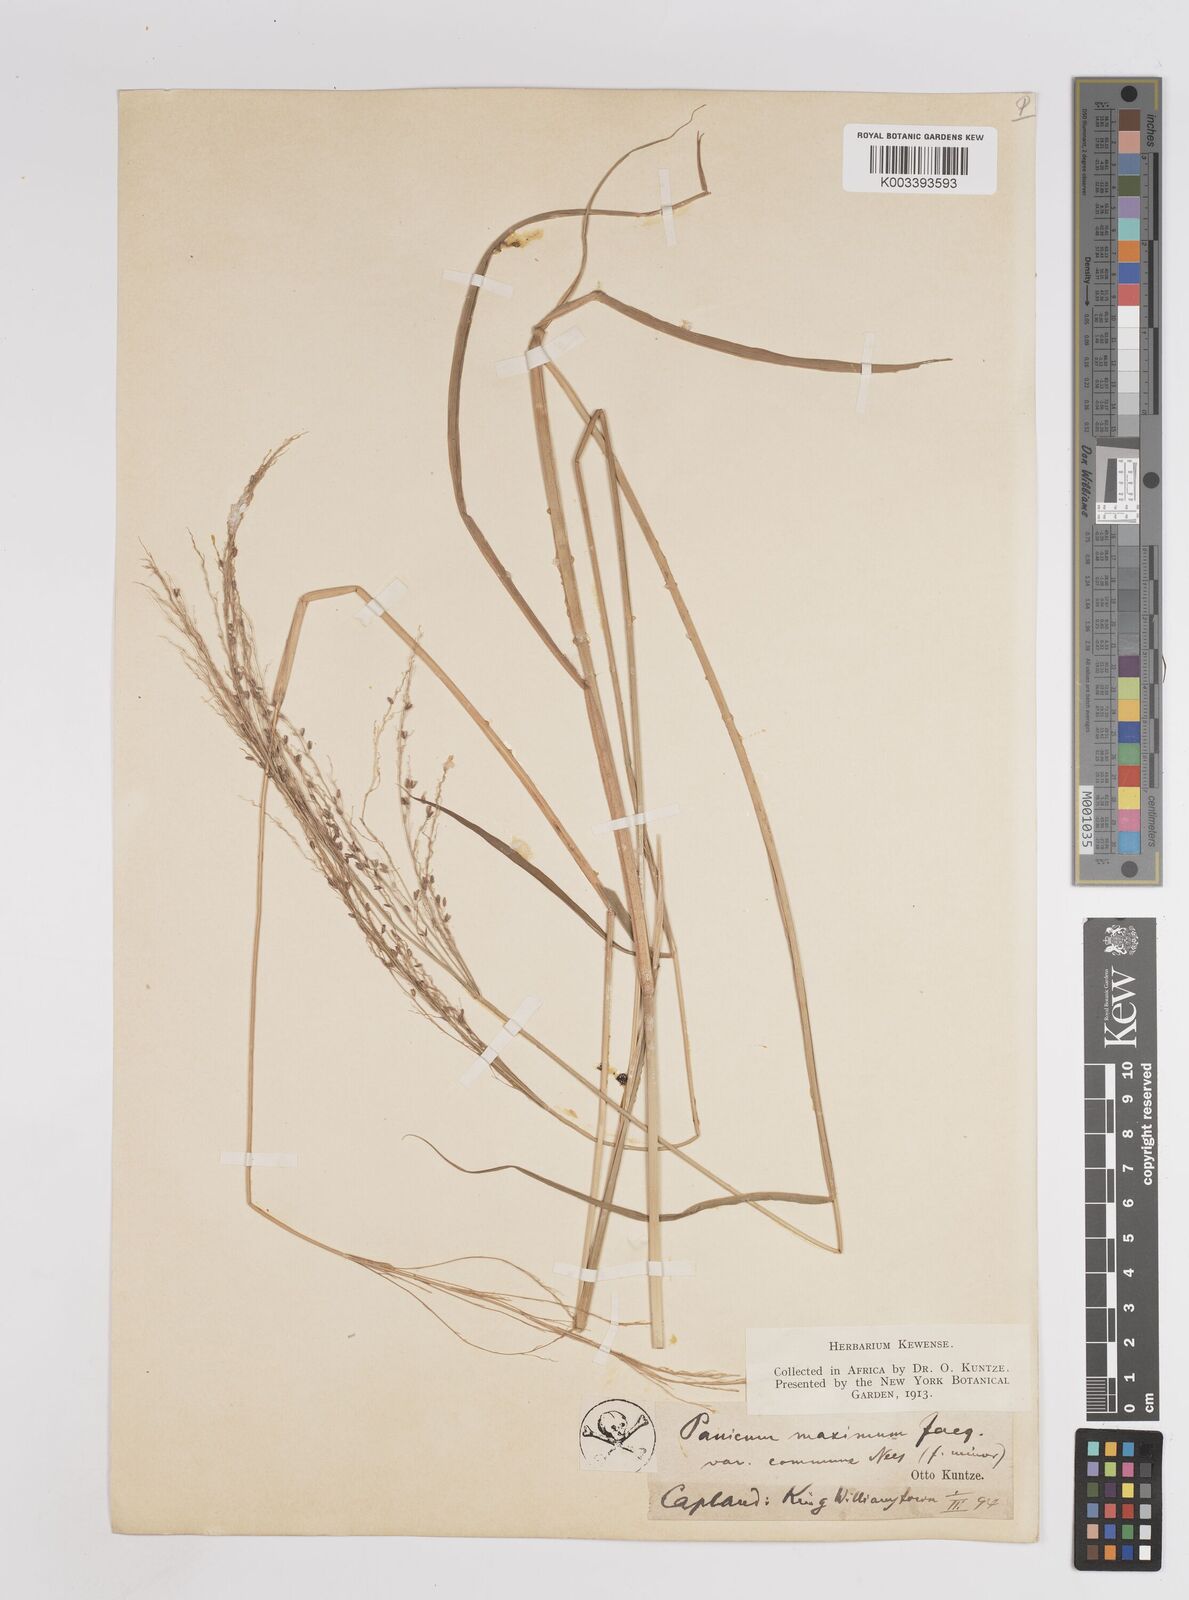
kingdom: Plantae
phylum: Tracheophyta
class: Liliopsida
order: Poales
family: Poaceae
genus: Megathyrsus
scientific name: Megathyrsus maximus
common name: Guineagrass
